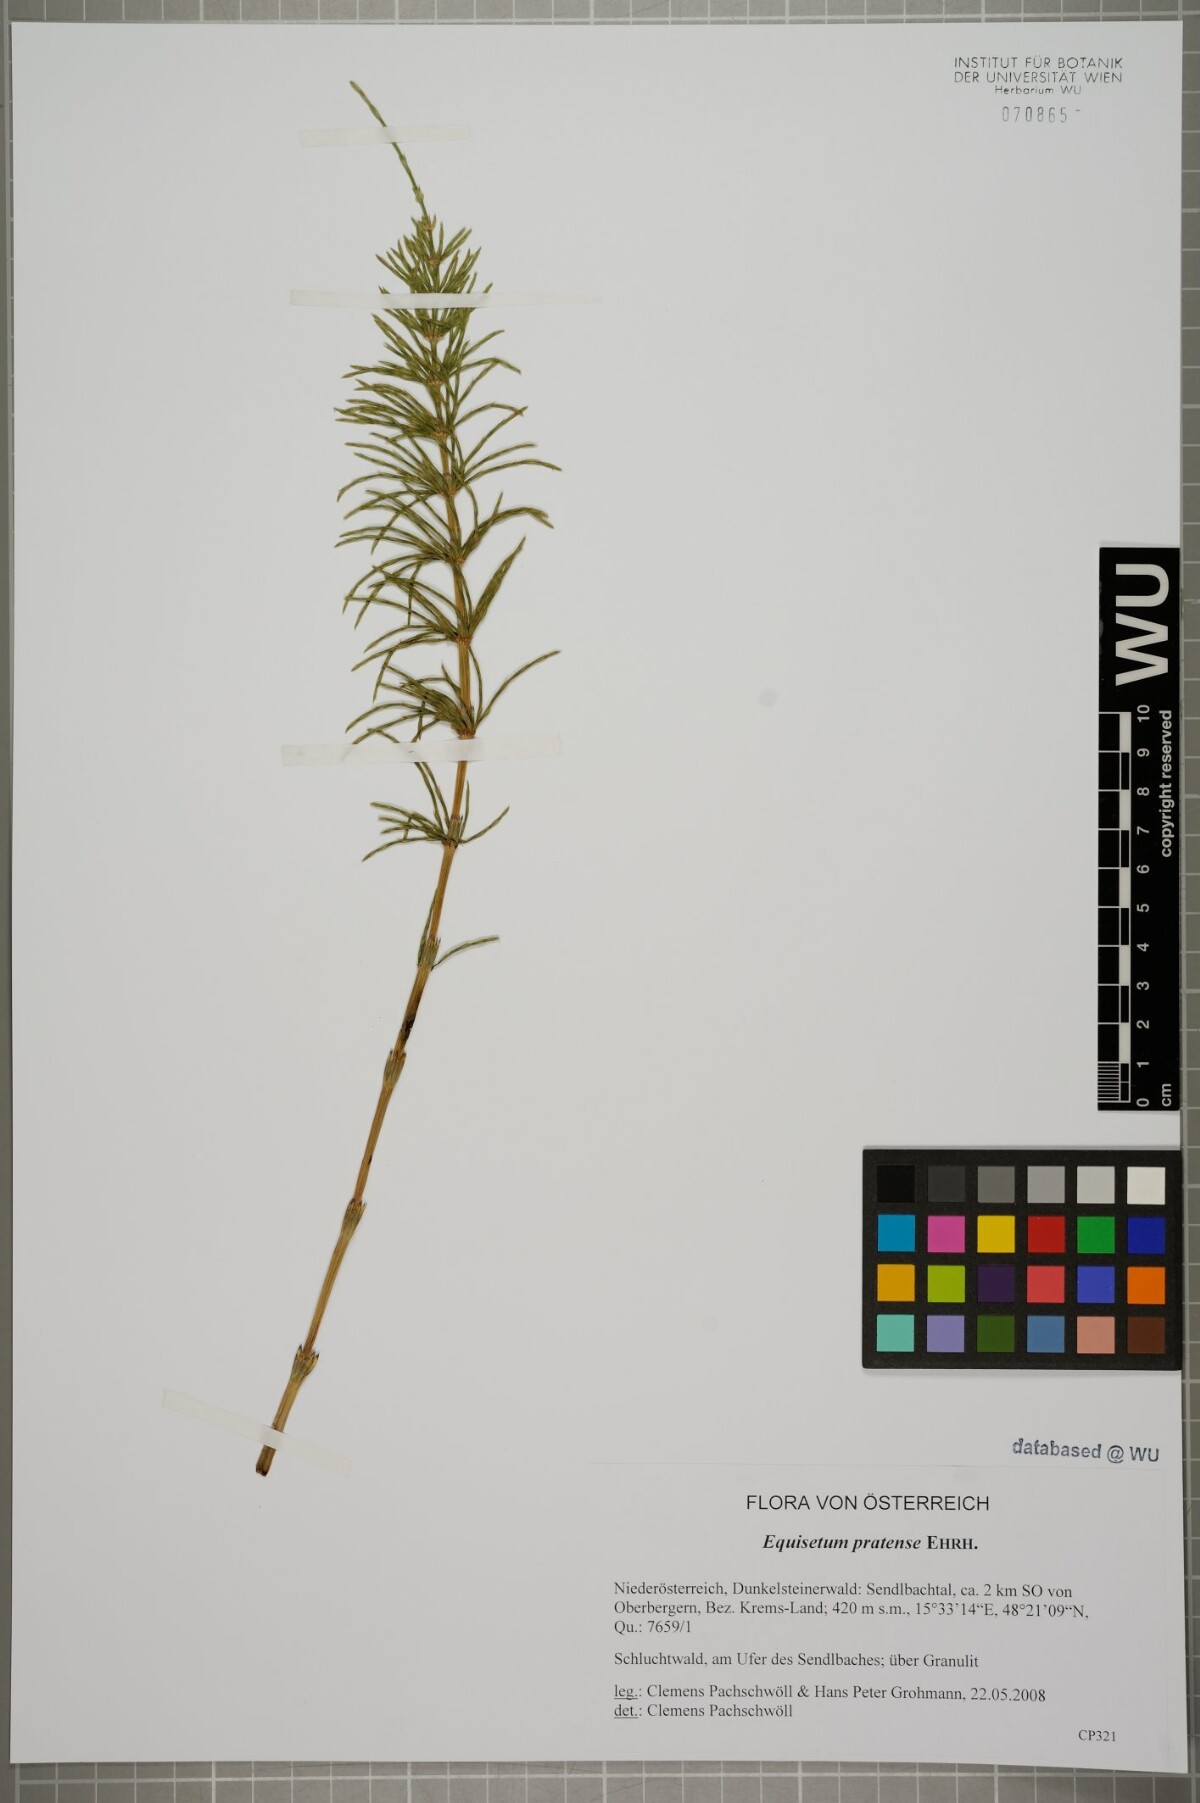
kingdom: Plantae
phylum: Tracheophyta
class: Polypodiopsida
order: Equisetales
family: Equisetaceae
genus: Equisetum
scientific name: Equisetum pratense
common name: Meadow horsetail
